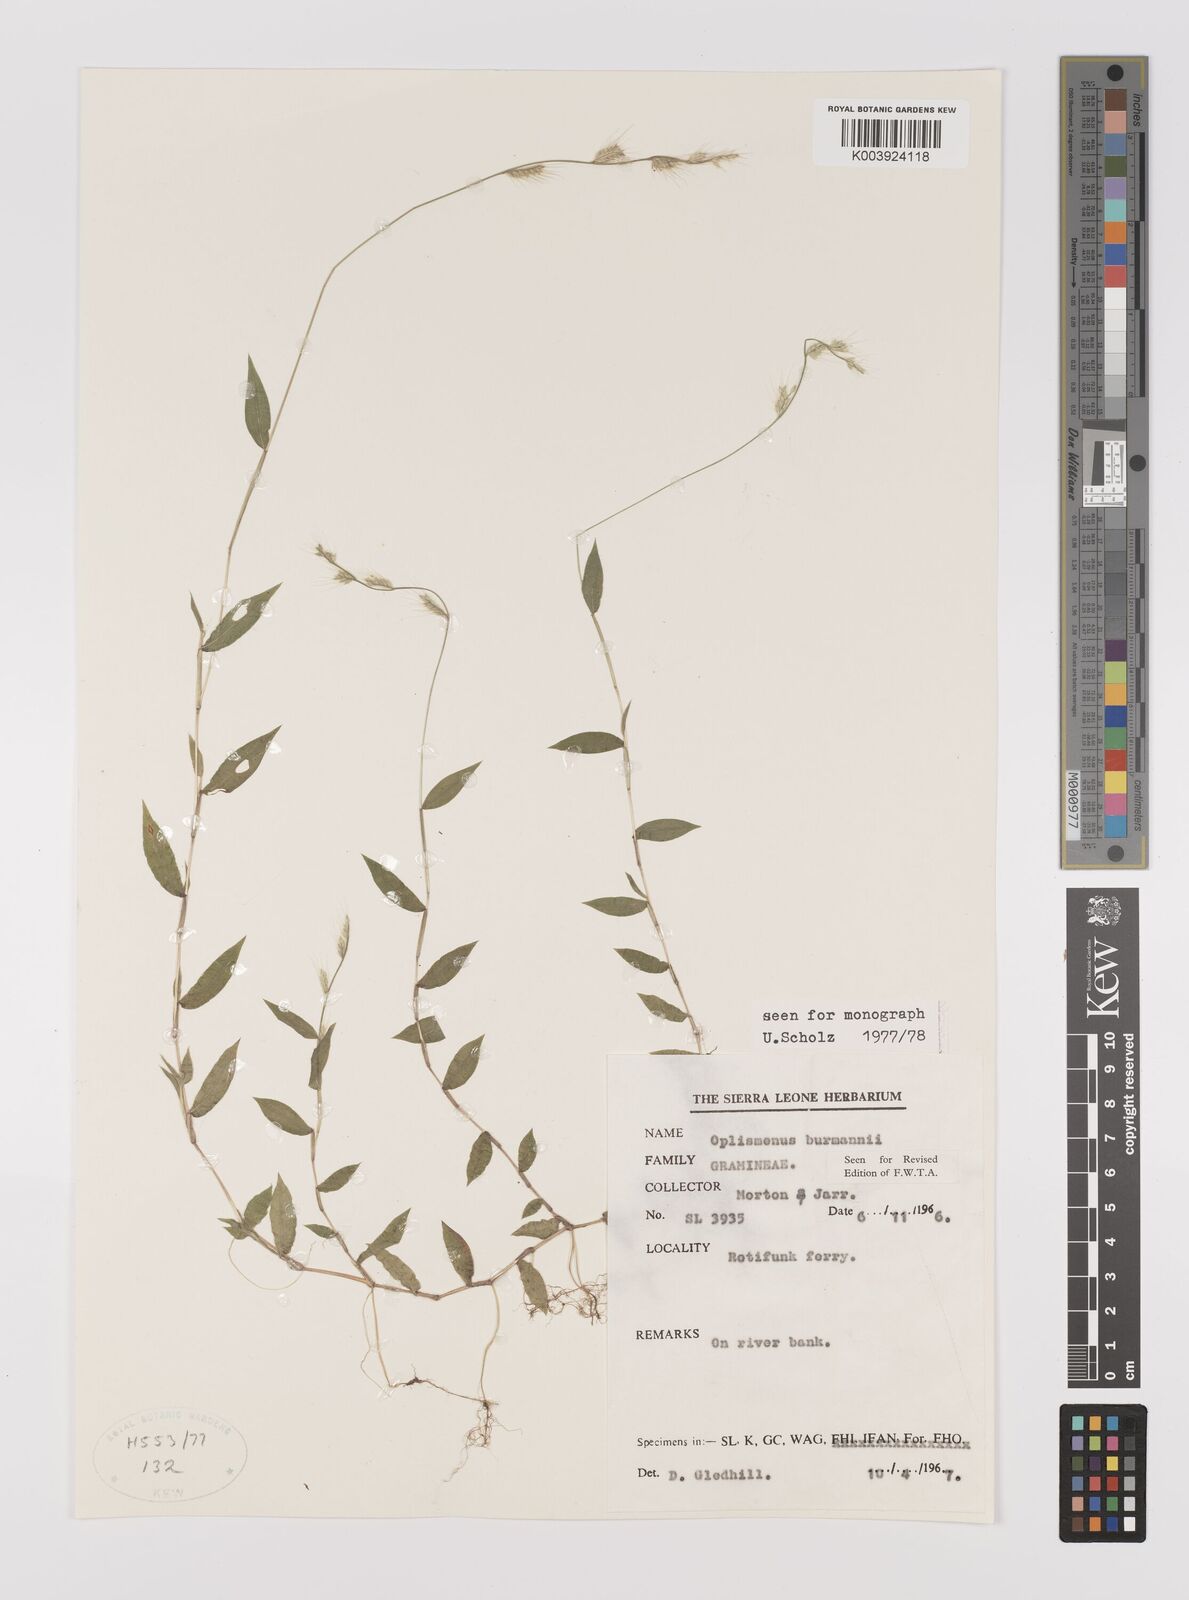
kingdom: Plantae
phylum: Tracheophyta
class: Liliopsida
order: Poales
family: Poaceae
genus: Oplismenus
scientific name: Oplismenus burmanni
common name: Burmann's basketgrass
